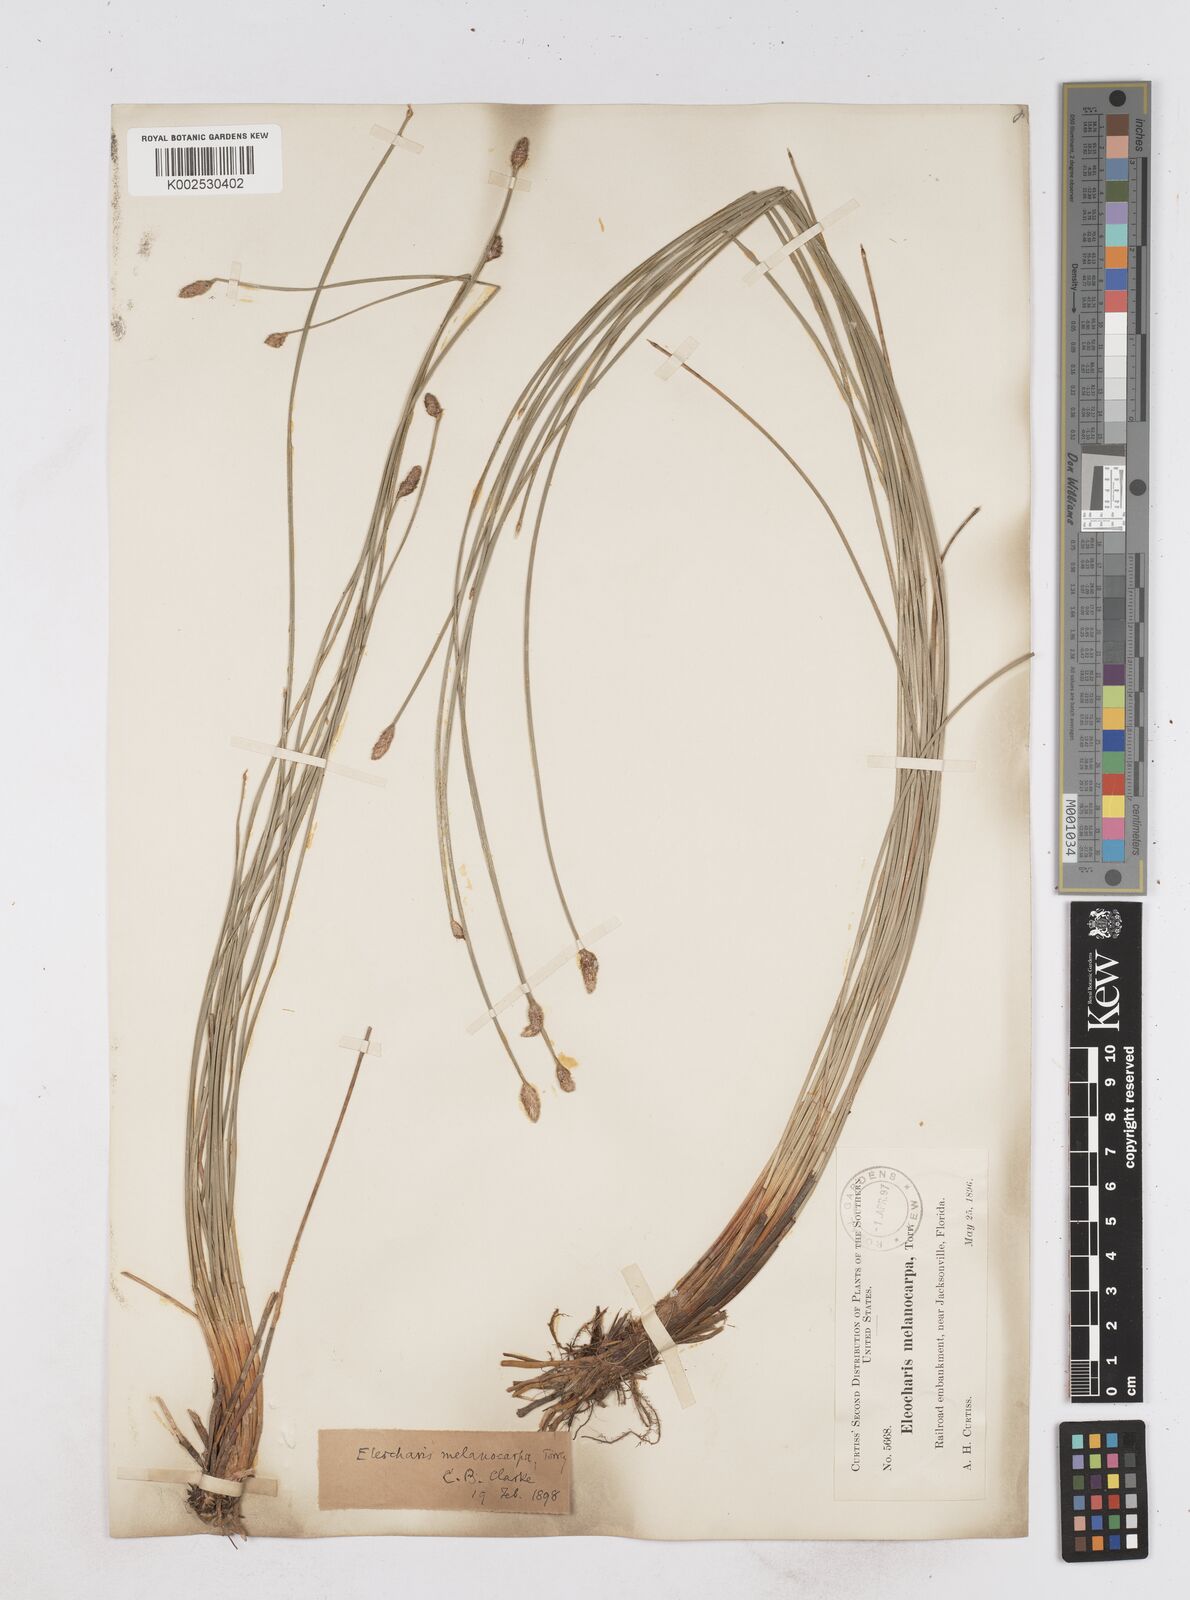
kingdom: Plantae
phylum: Tracheophyta
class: Liliopsida
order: Poales
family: Cyperaceae
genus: Eleocharis
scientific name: Eleocharis melanocarpa
